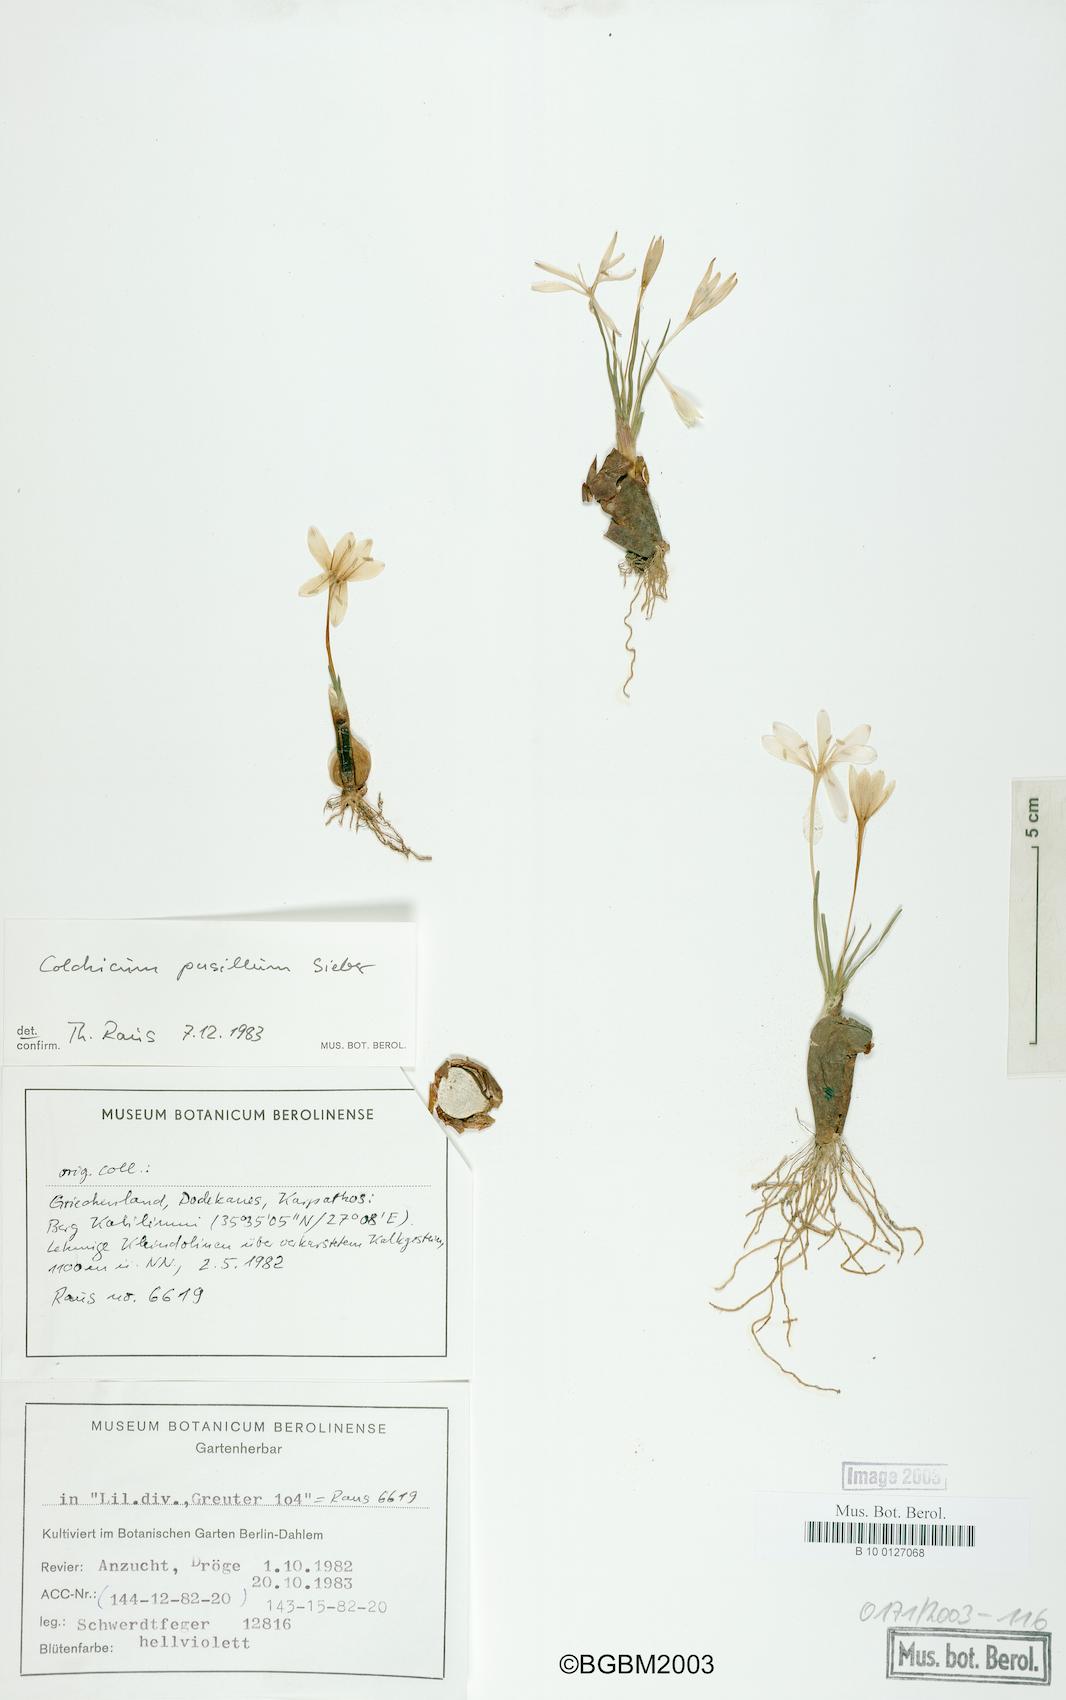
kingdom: Plantae
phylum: Tracheophyta
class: Liliopsida
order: Liliales
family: Colchicaceae
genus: Colchicum
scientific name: Colchicum pusillum
